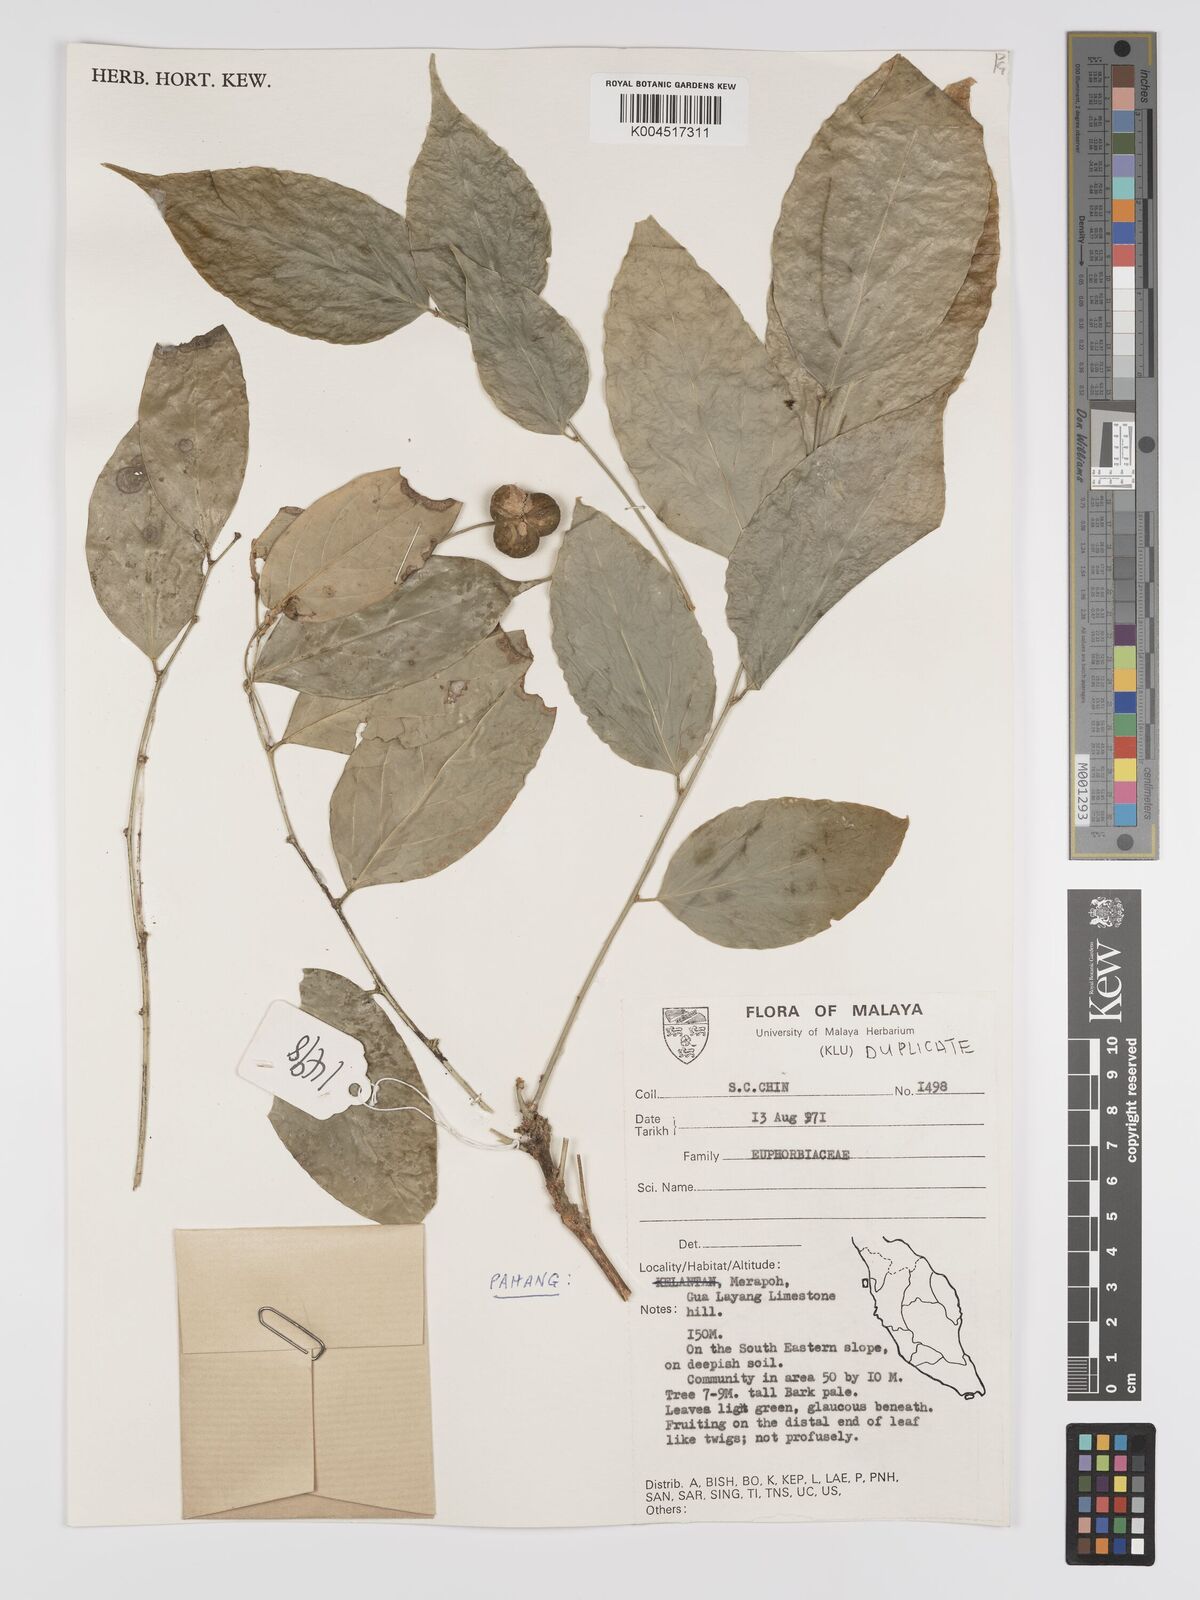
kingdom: Plantae
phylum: Tracheophyta
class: Magnoliopsida
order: Malpighiales
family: Phyllanthaceae
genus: Phyllanthus
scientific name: Phyllanthus
